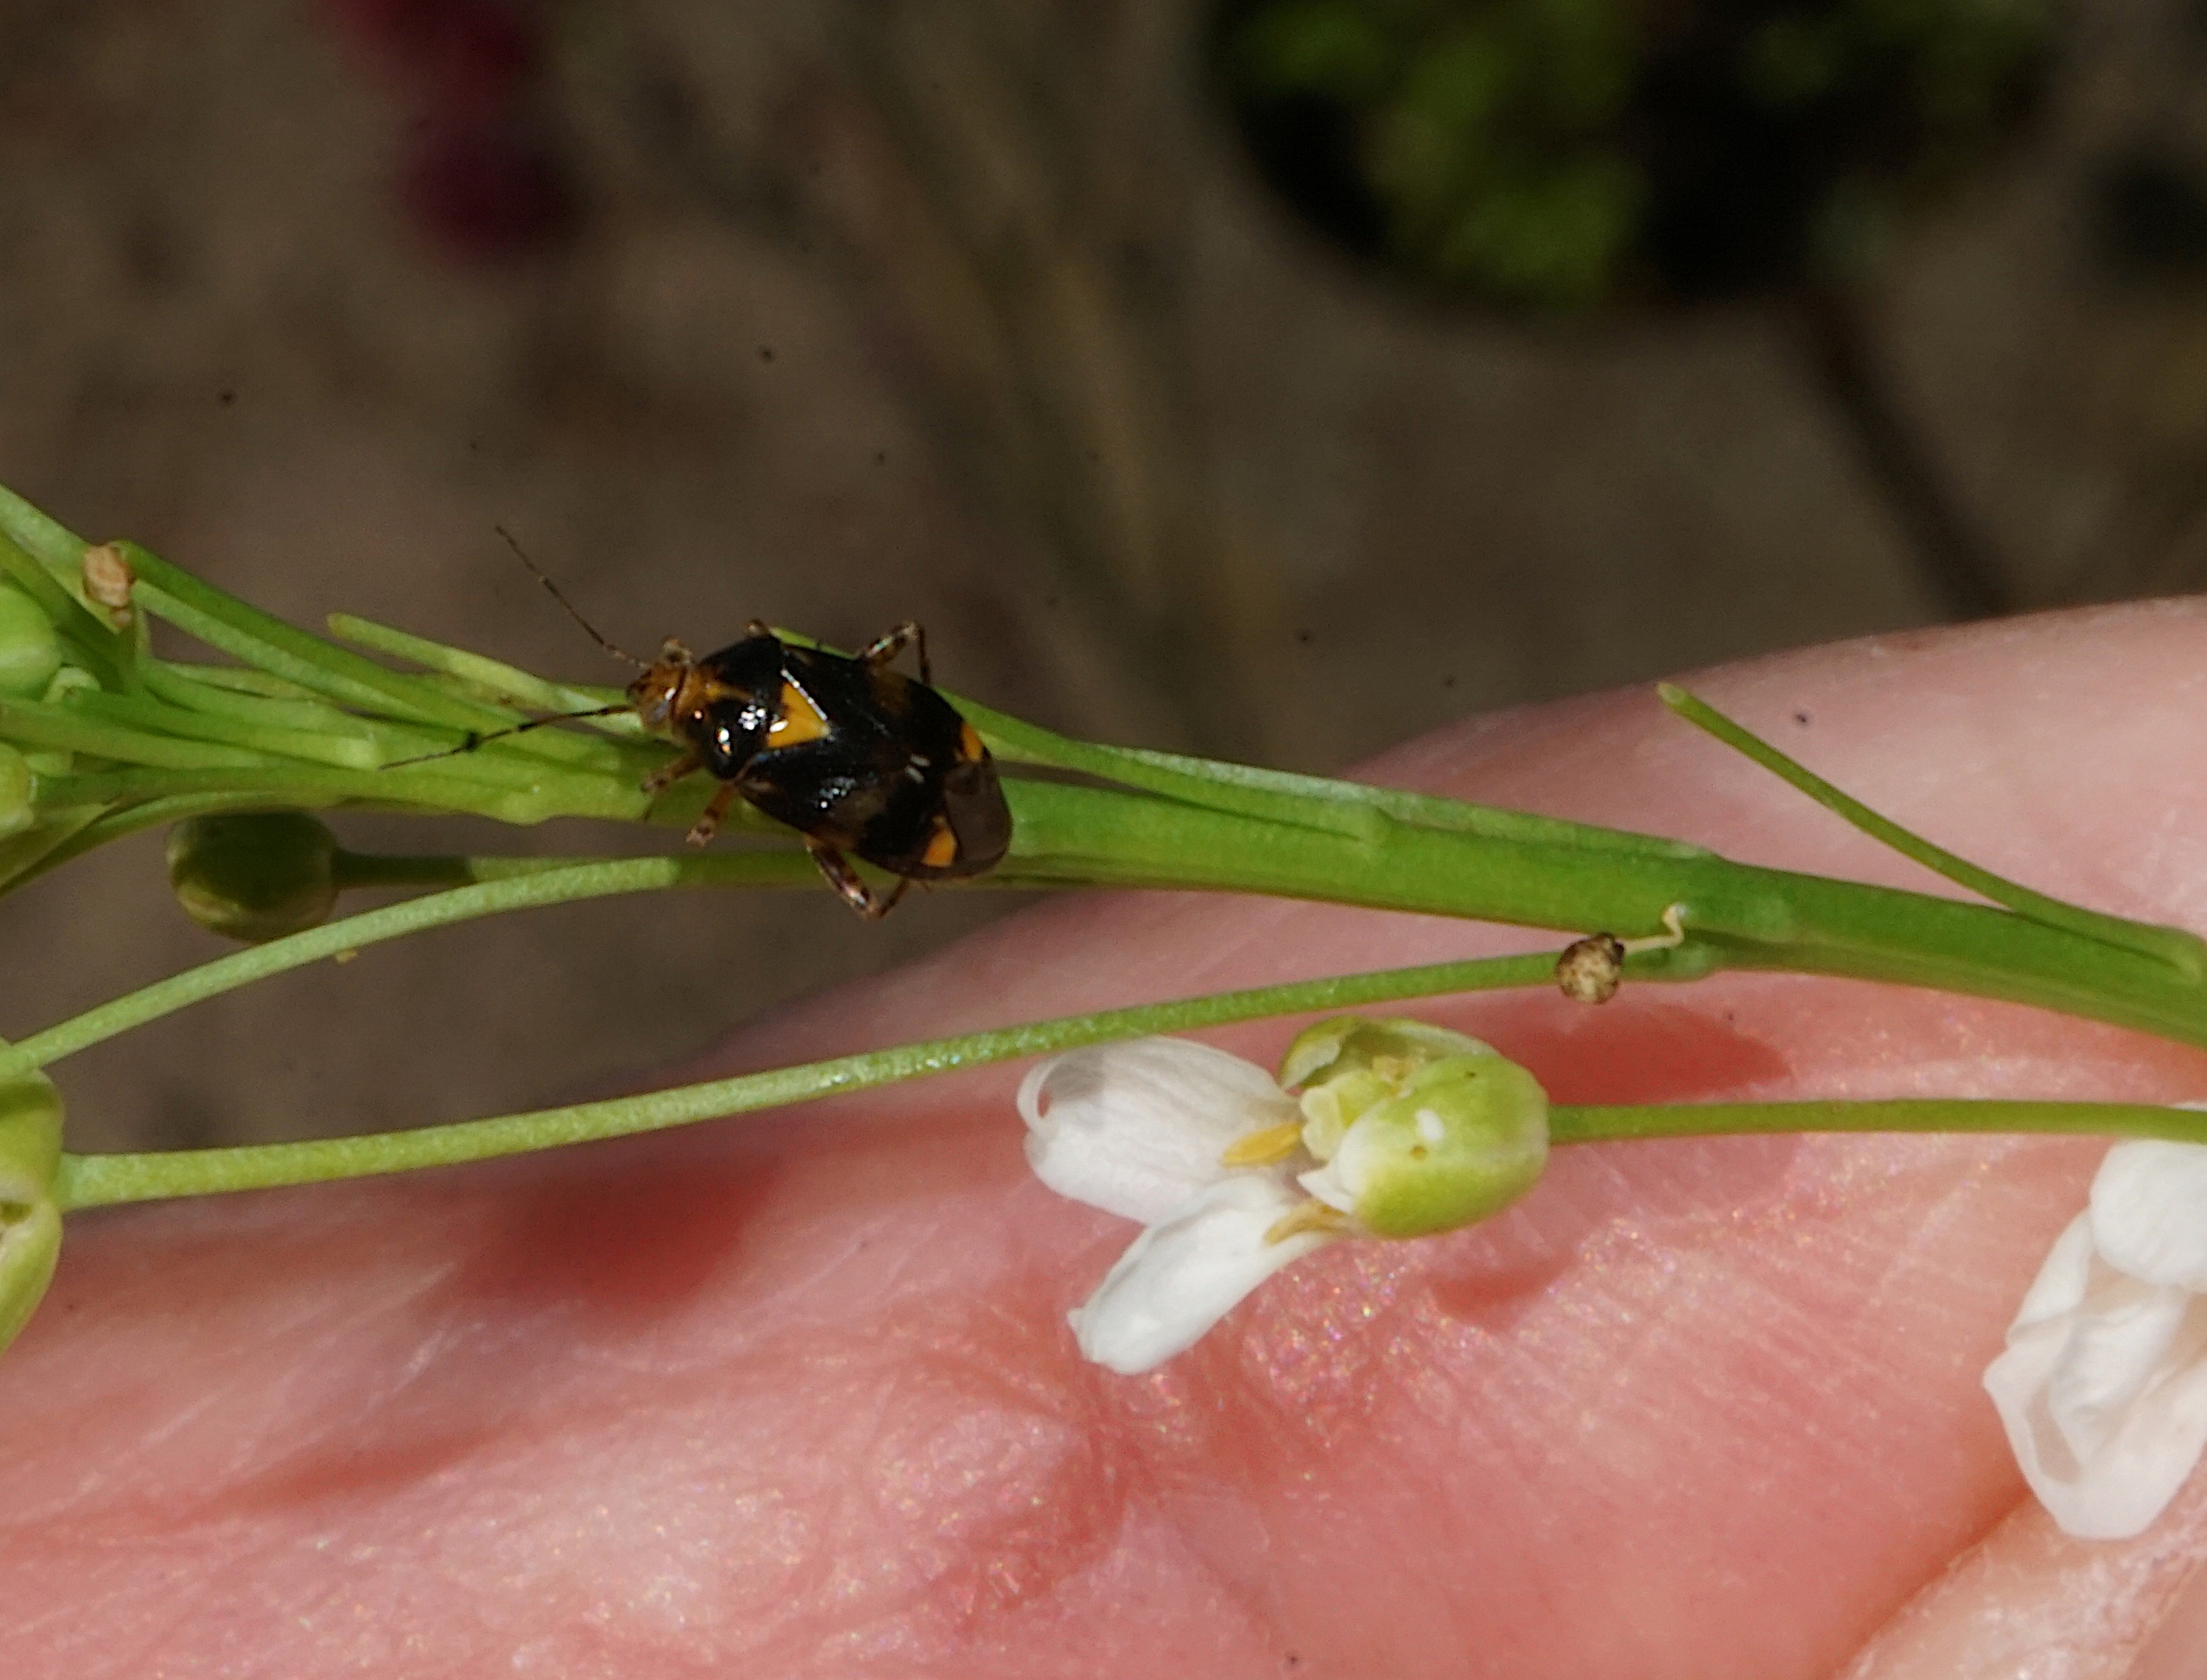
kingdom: Animalia
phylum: Arthropoda
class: Insecta
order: Hemiptera
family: Miridae
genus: Liocoris
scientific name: Liocoris tripustulatus
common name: Treplettet nældetæge
